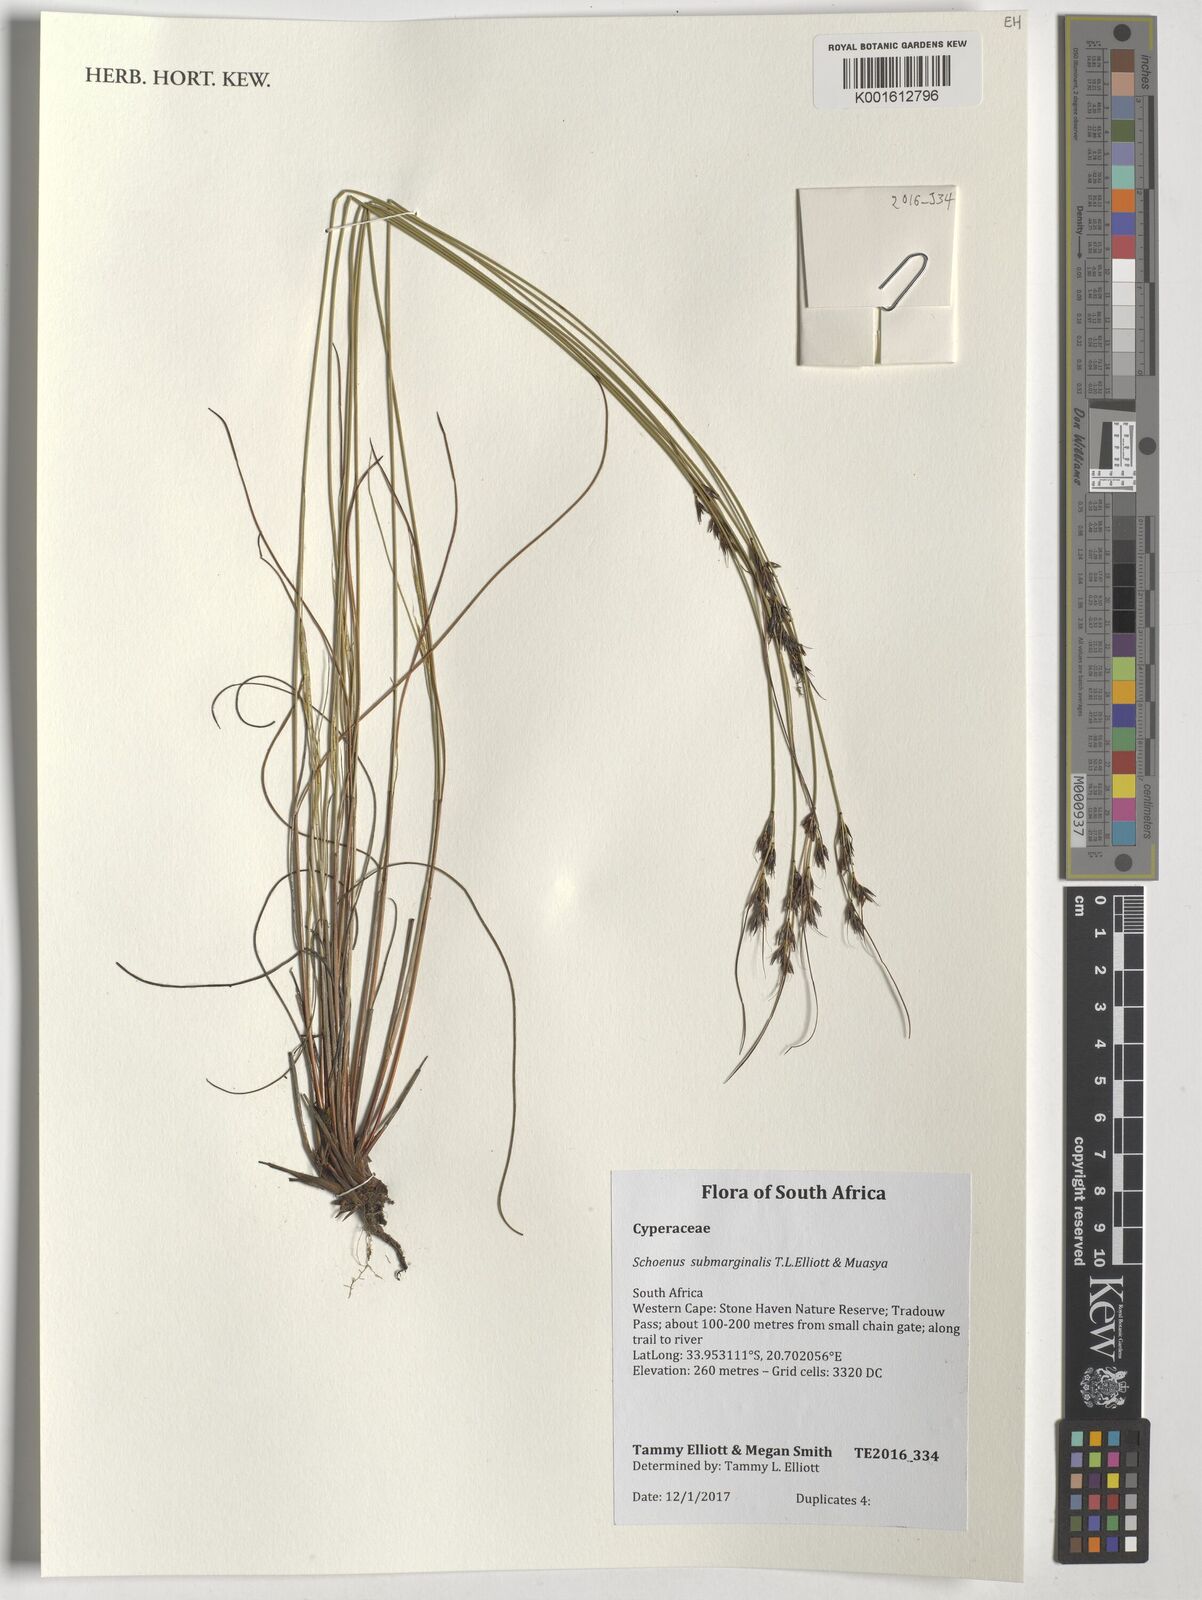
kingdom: Plantae
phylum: Tracheophyta
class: Liliopsida
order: Poales
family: Cyperaceae
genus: Schoenus
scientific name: Schoenus submarginalis
